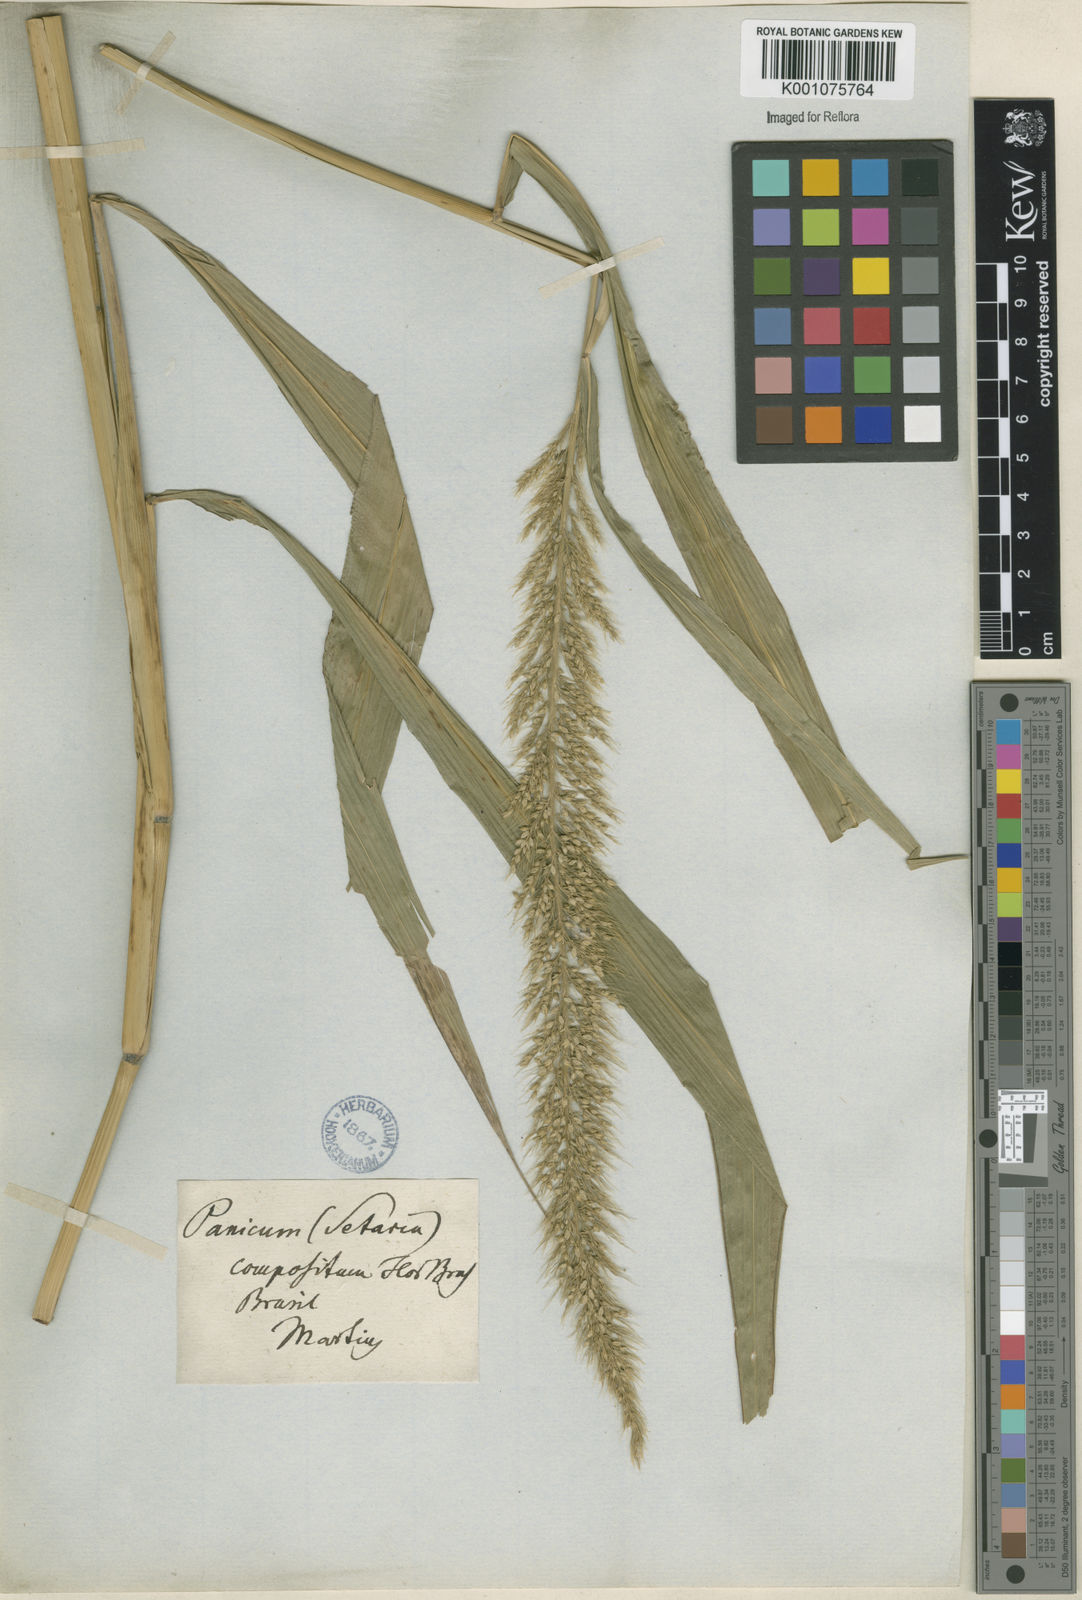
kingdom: Plantae
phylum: Tracheophyta
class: Liliopsida
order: Poales
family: Poaceae
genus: Setaria
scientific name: Setaria vulpiseta
